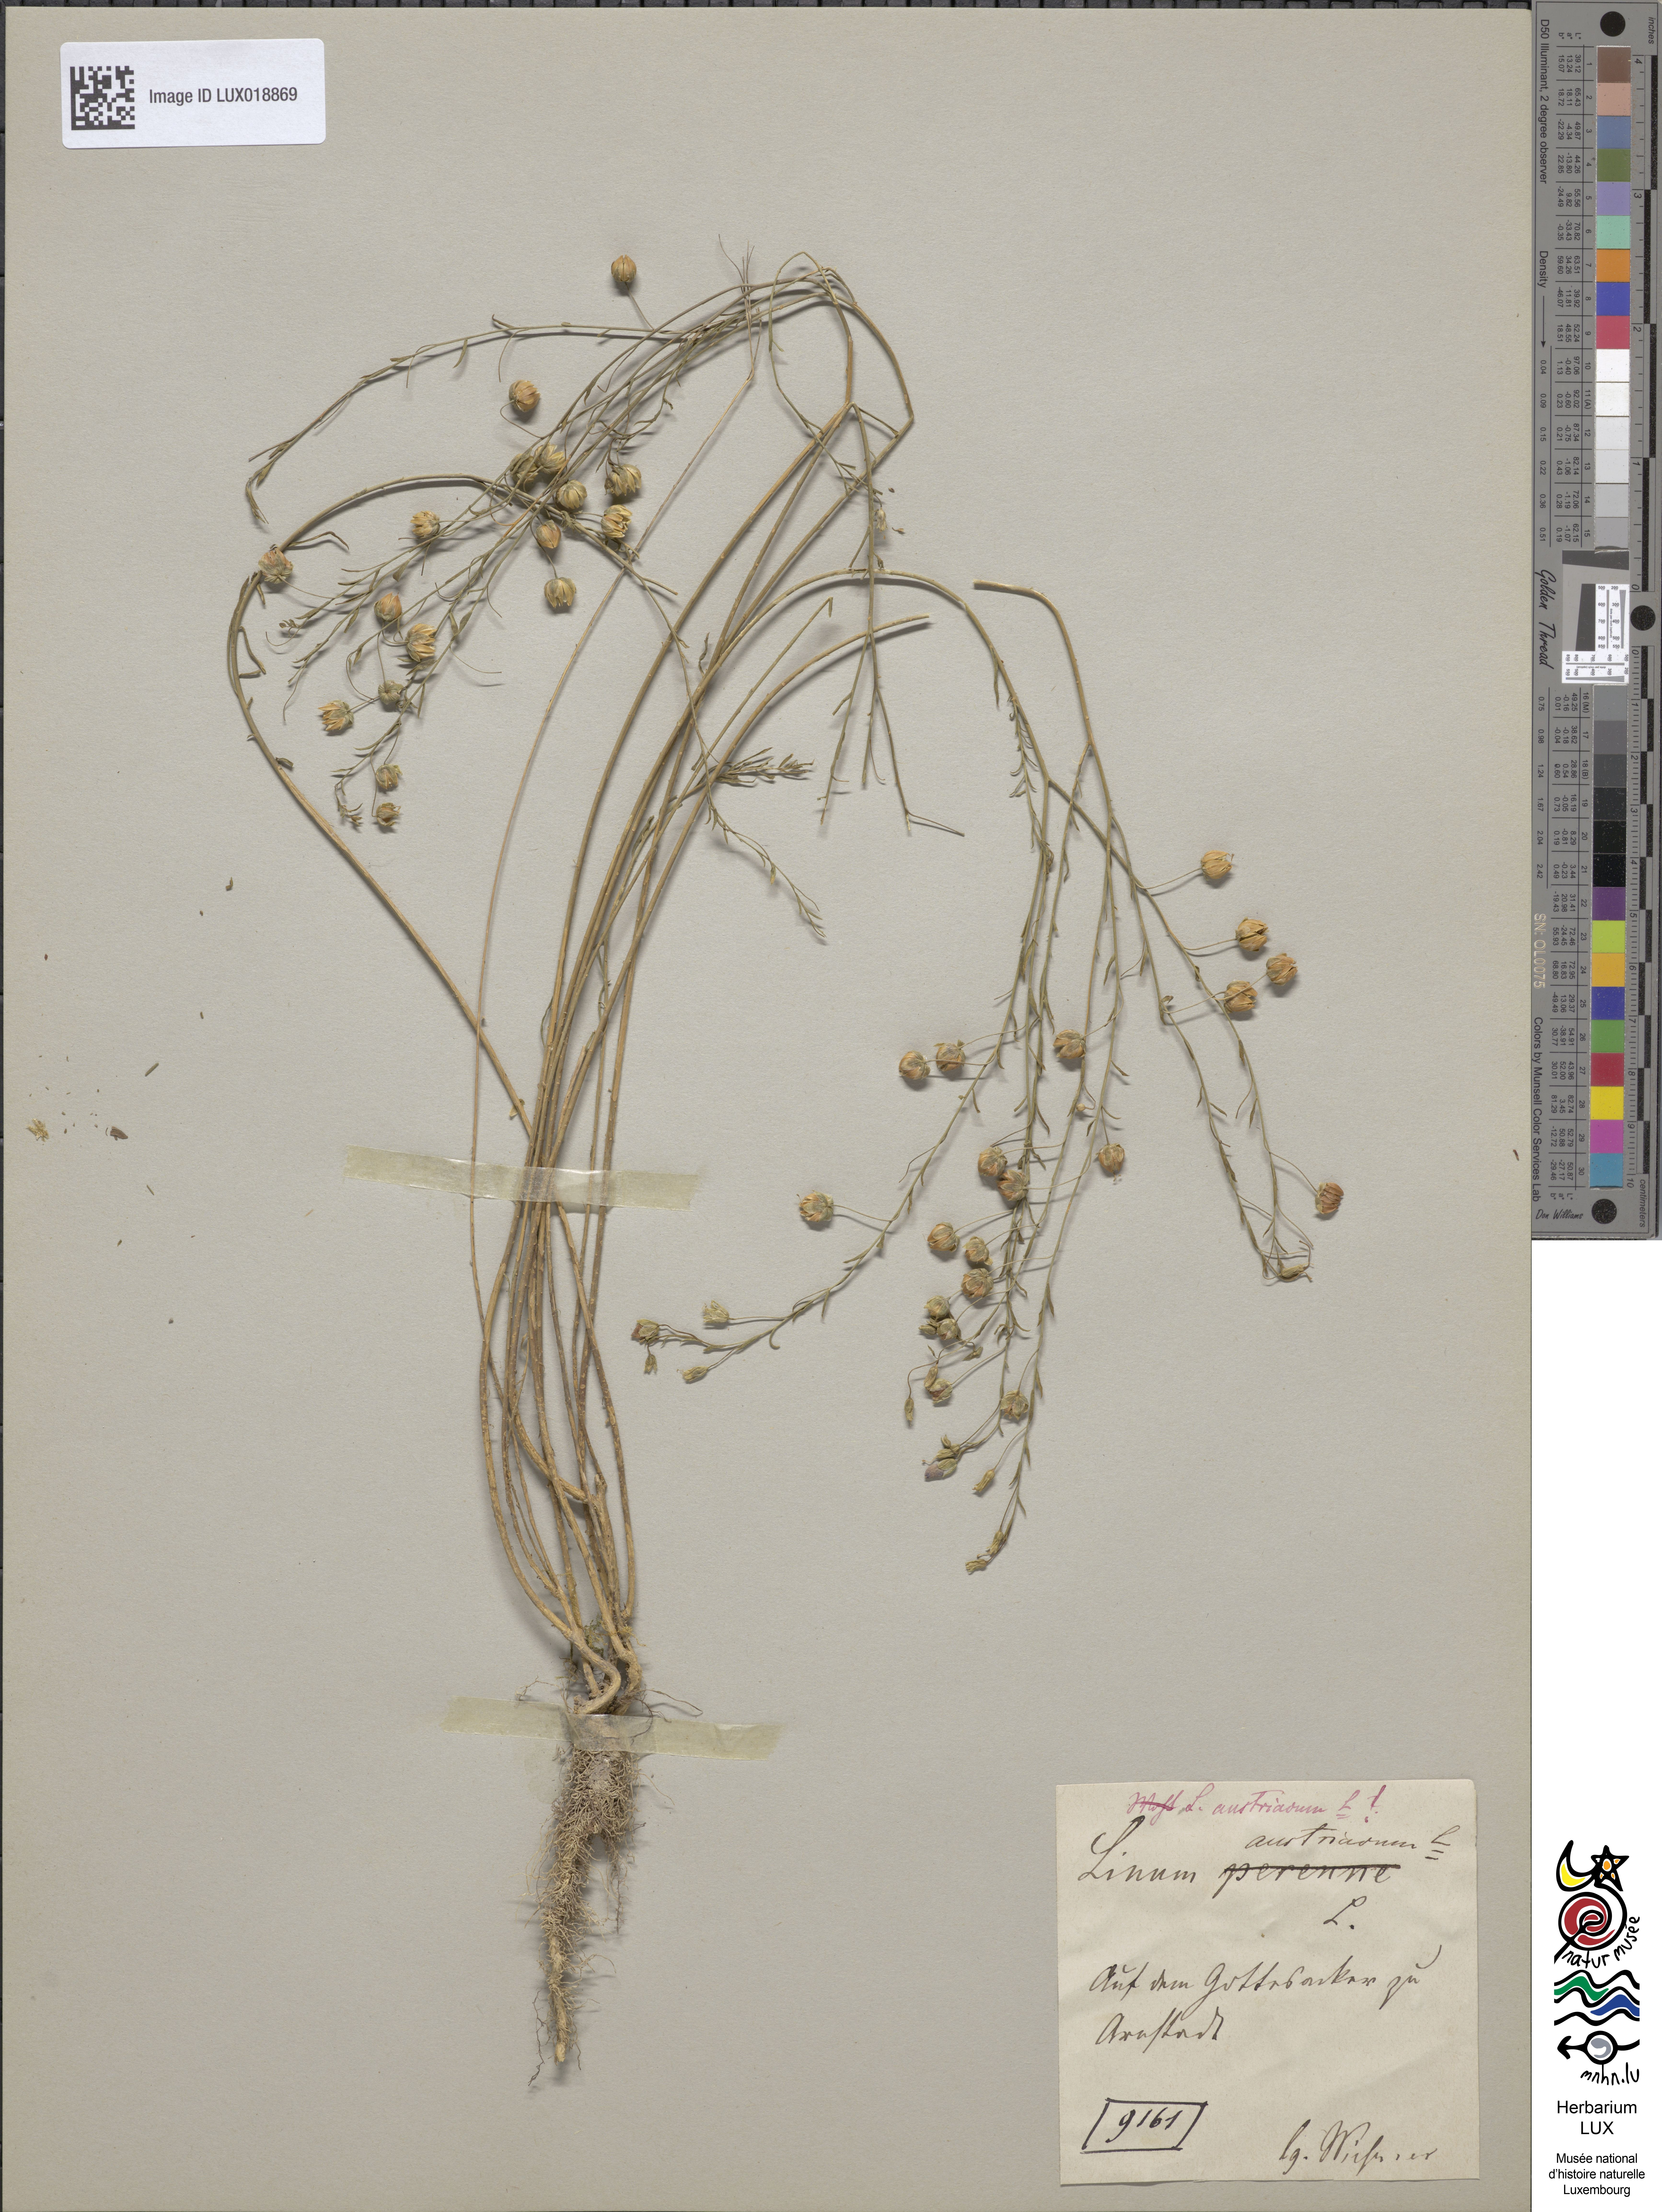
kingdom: Plantae
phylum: Tracheophyta
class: Magnoliopsida
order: Malpighiales
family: Linaceae
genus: Linum
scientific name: Linum austriacum
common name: Austrian flax
